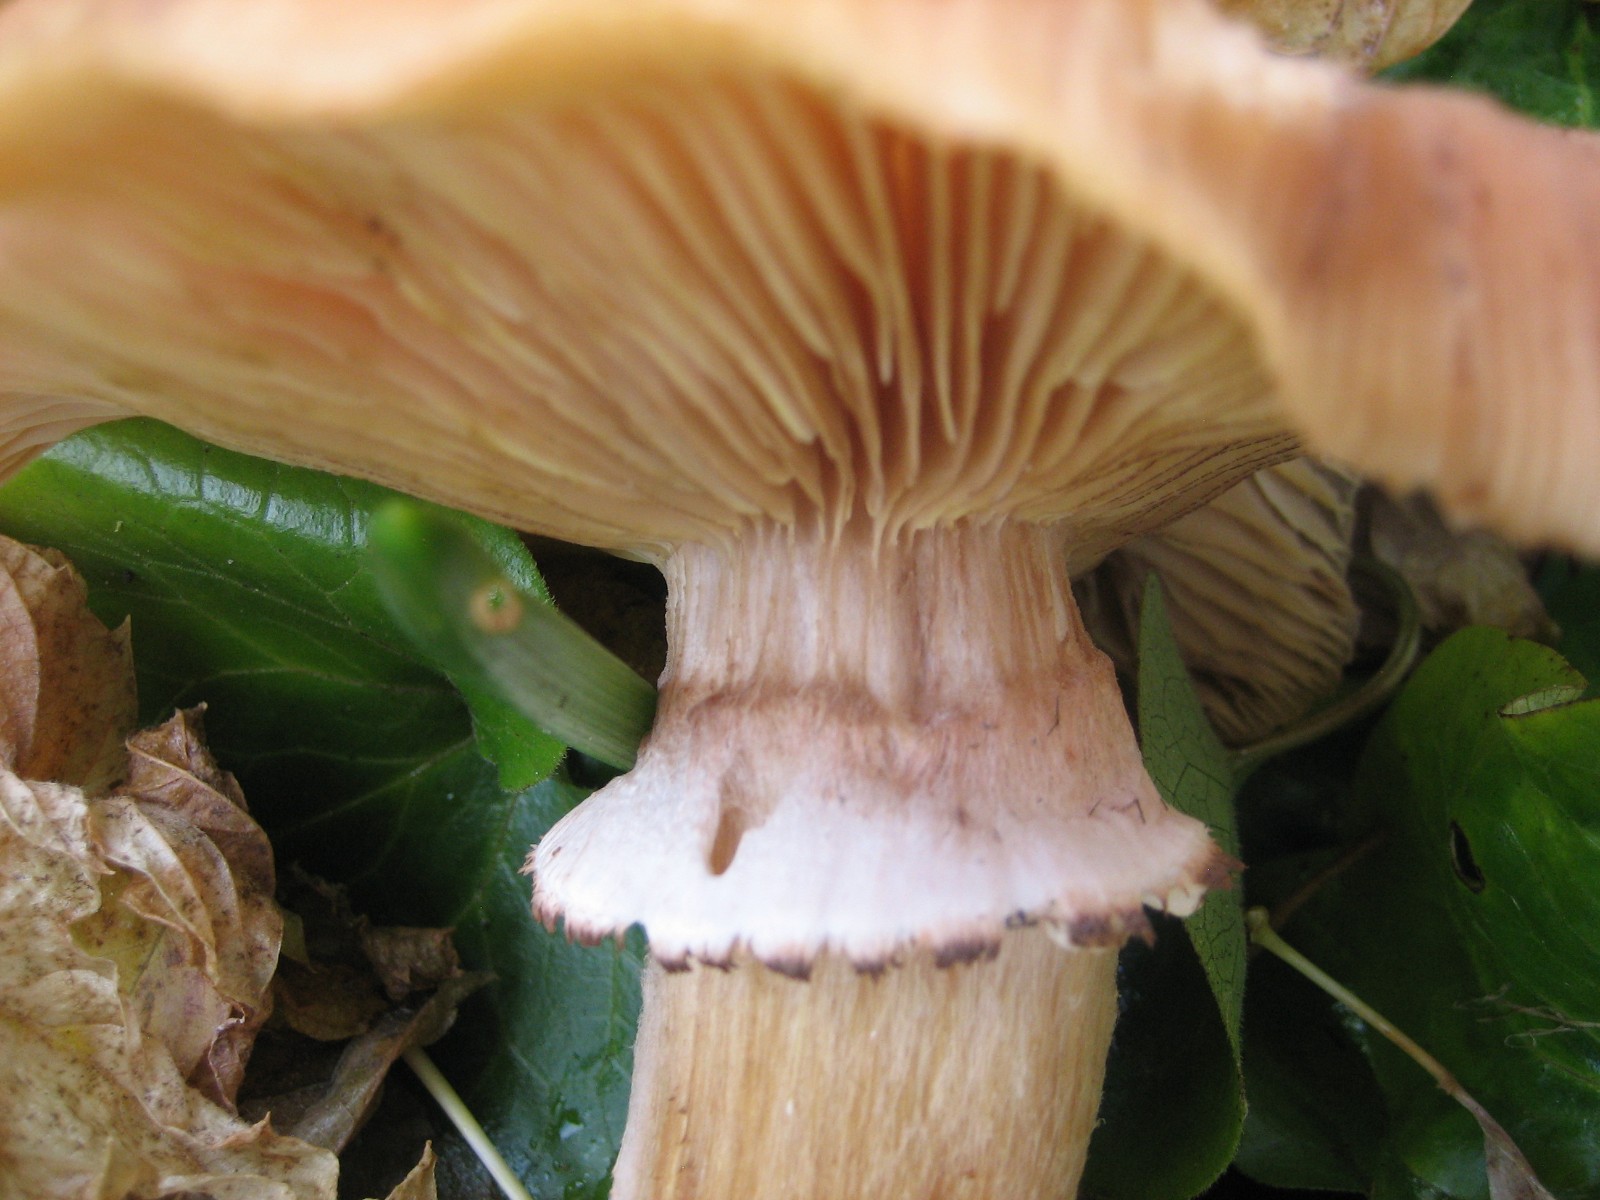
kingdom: Fungi
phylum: Basidiomycota
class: Agaricomycetes
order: Agaricales
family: Physalacriaceae
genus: Armillaria
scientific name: Armillaria
